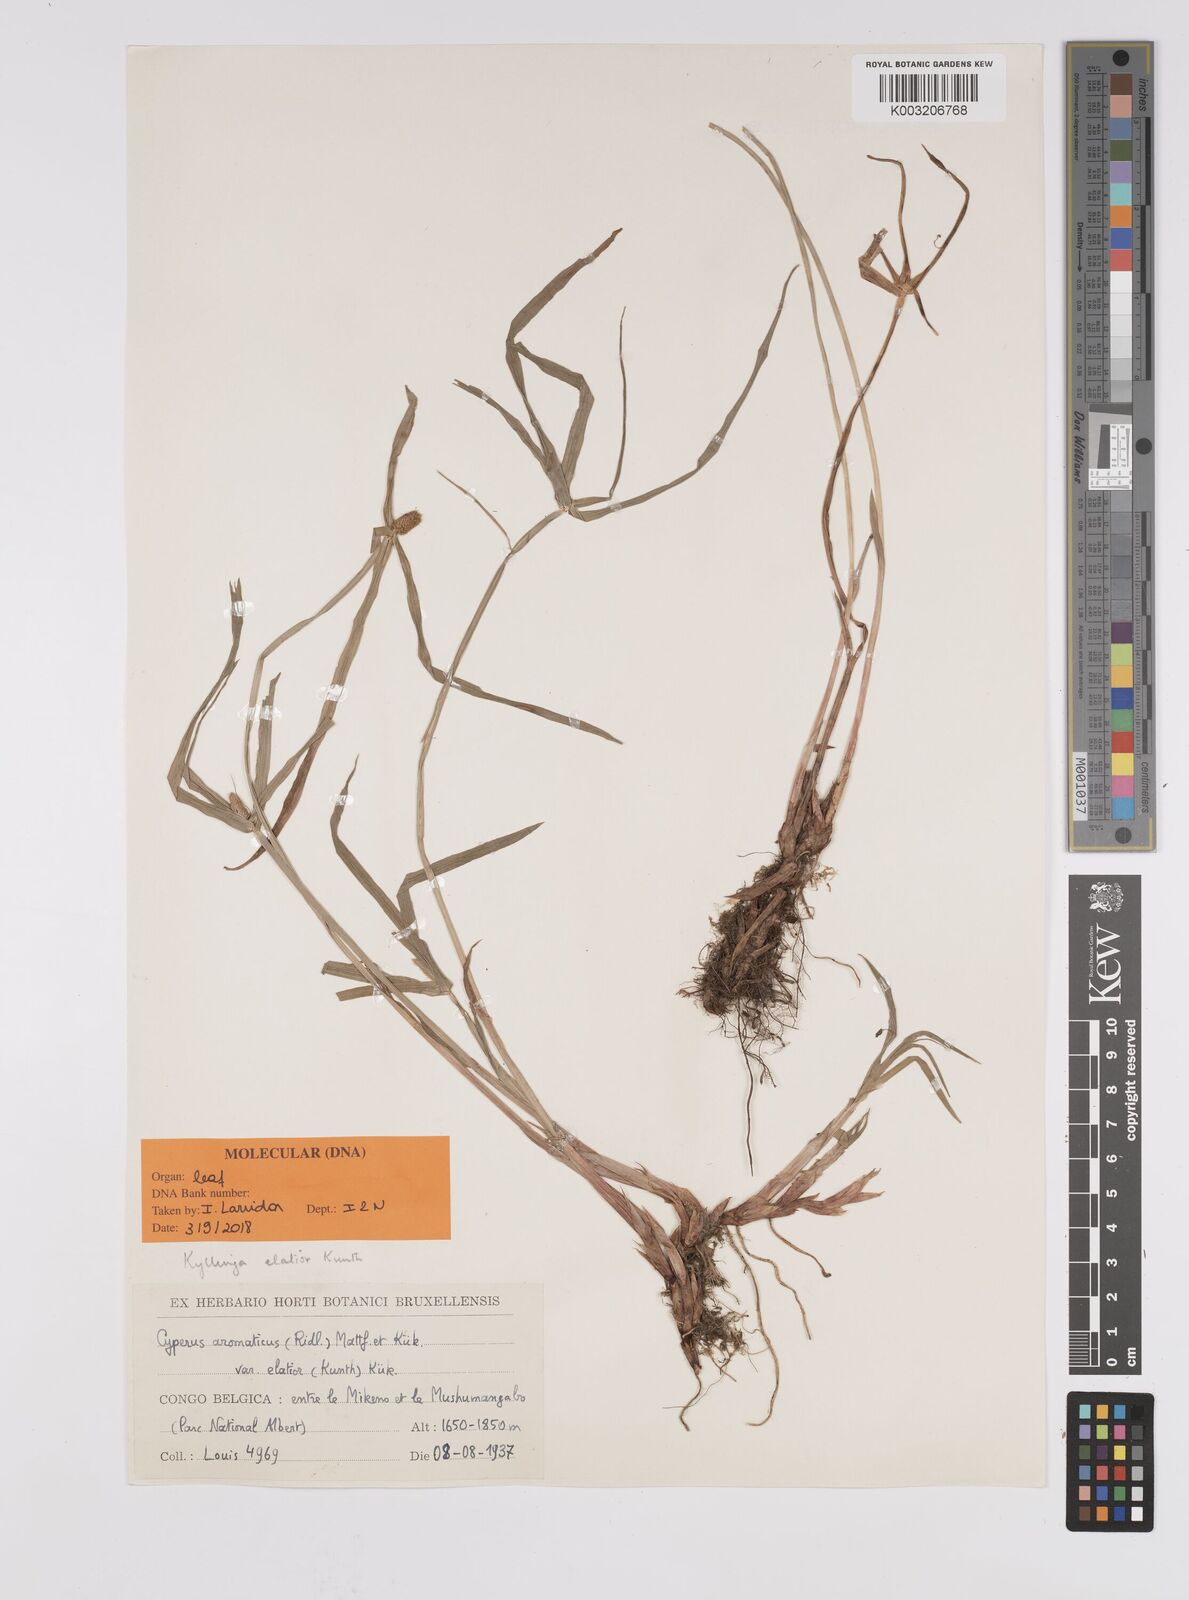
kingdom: Plantae
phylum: Tracheophyta
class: Liliopsida
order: Poales
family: Cyperaceae
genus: Cyperus
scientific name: Cyperus
